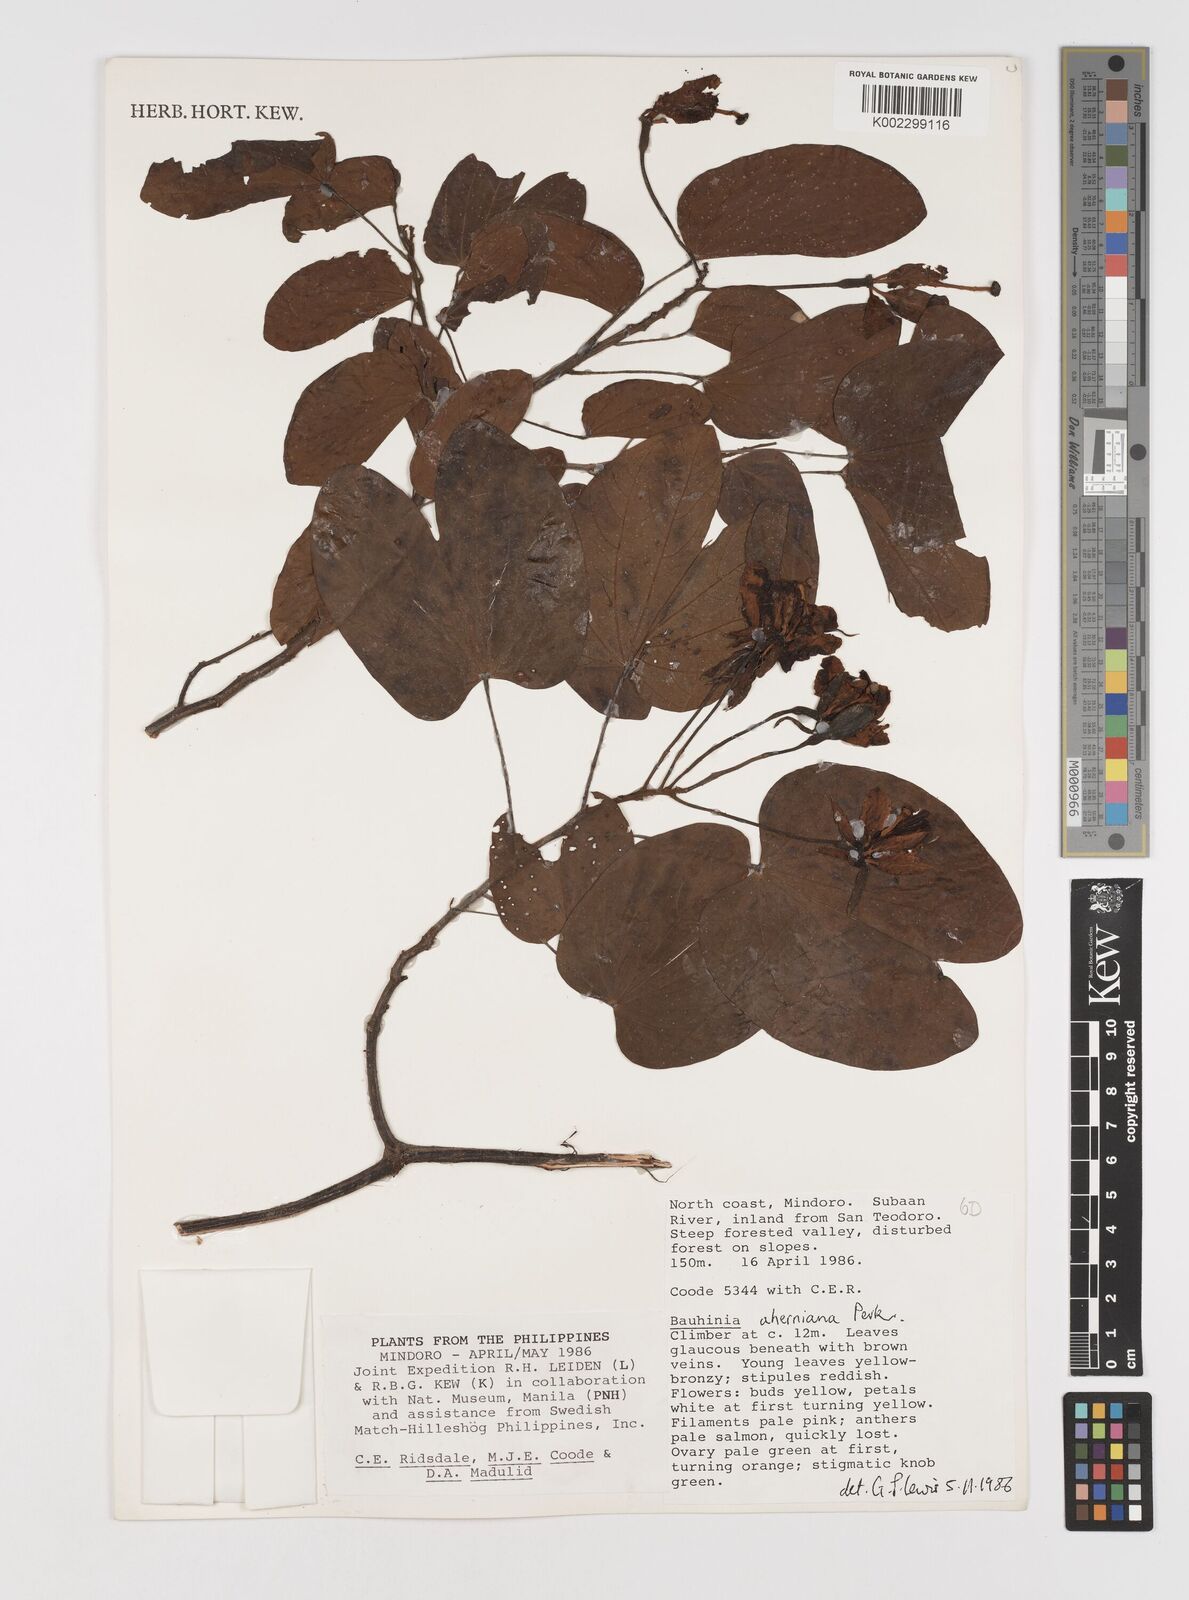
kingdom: Plantae
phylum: Tracheophyta
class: Magnoliopsida
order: Fabales
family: Fabaceae
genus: Phanera
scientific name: Phanera aherniana
